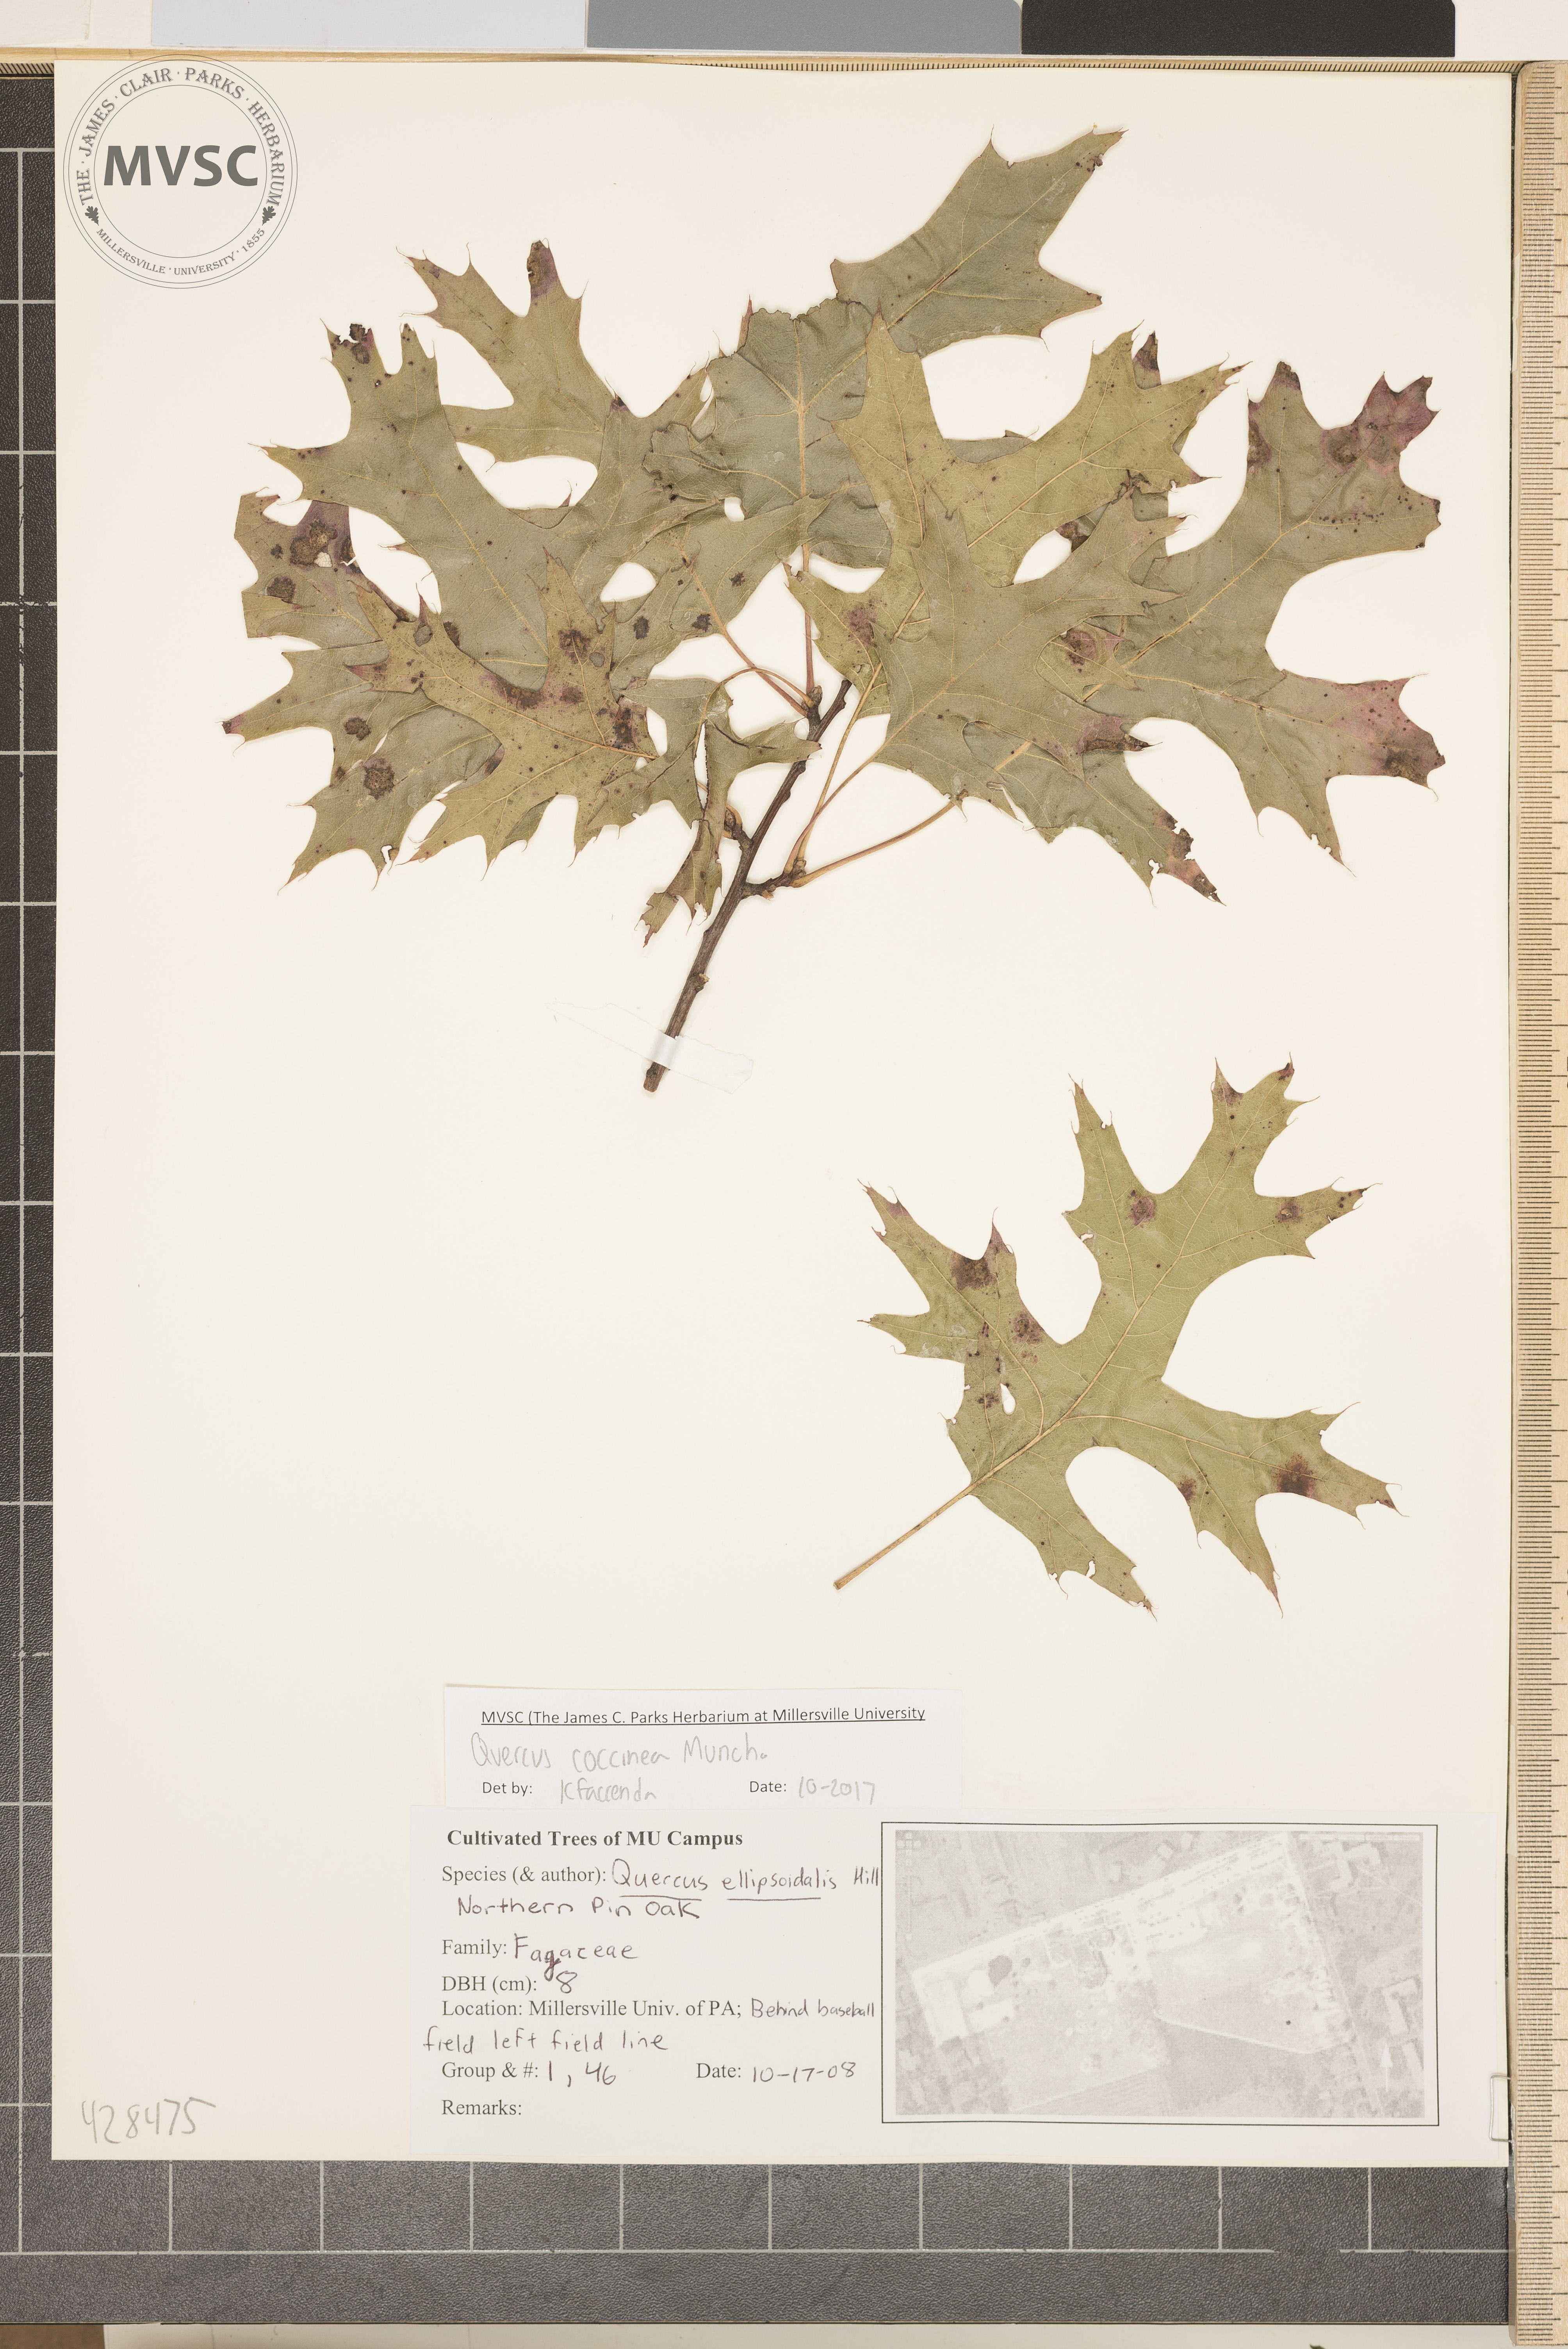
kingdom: Plantae
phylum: Tracheophyta
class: Magnoliopsida
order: Fagales
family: Fagaceae
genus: Quercus
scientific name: Quercus coccinea
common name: Scarlet oak
